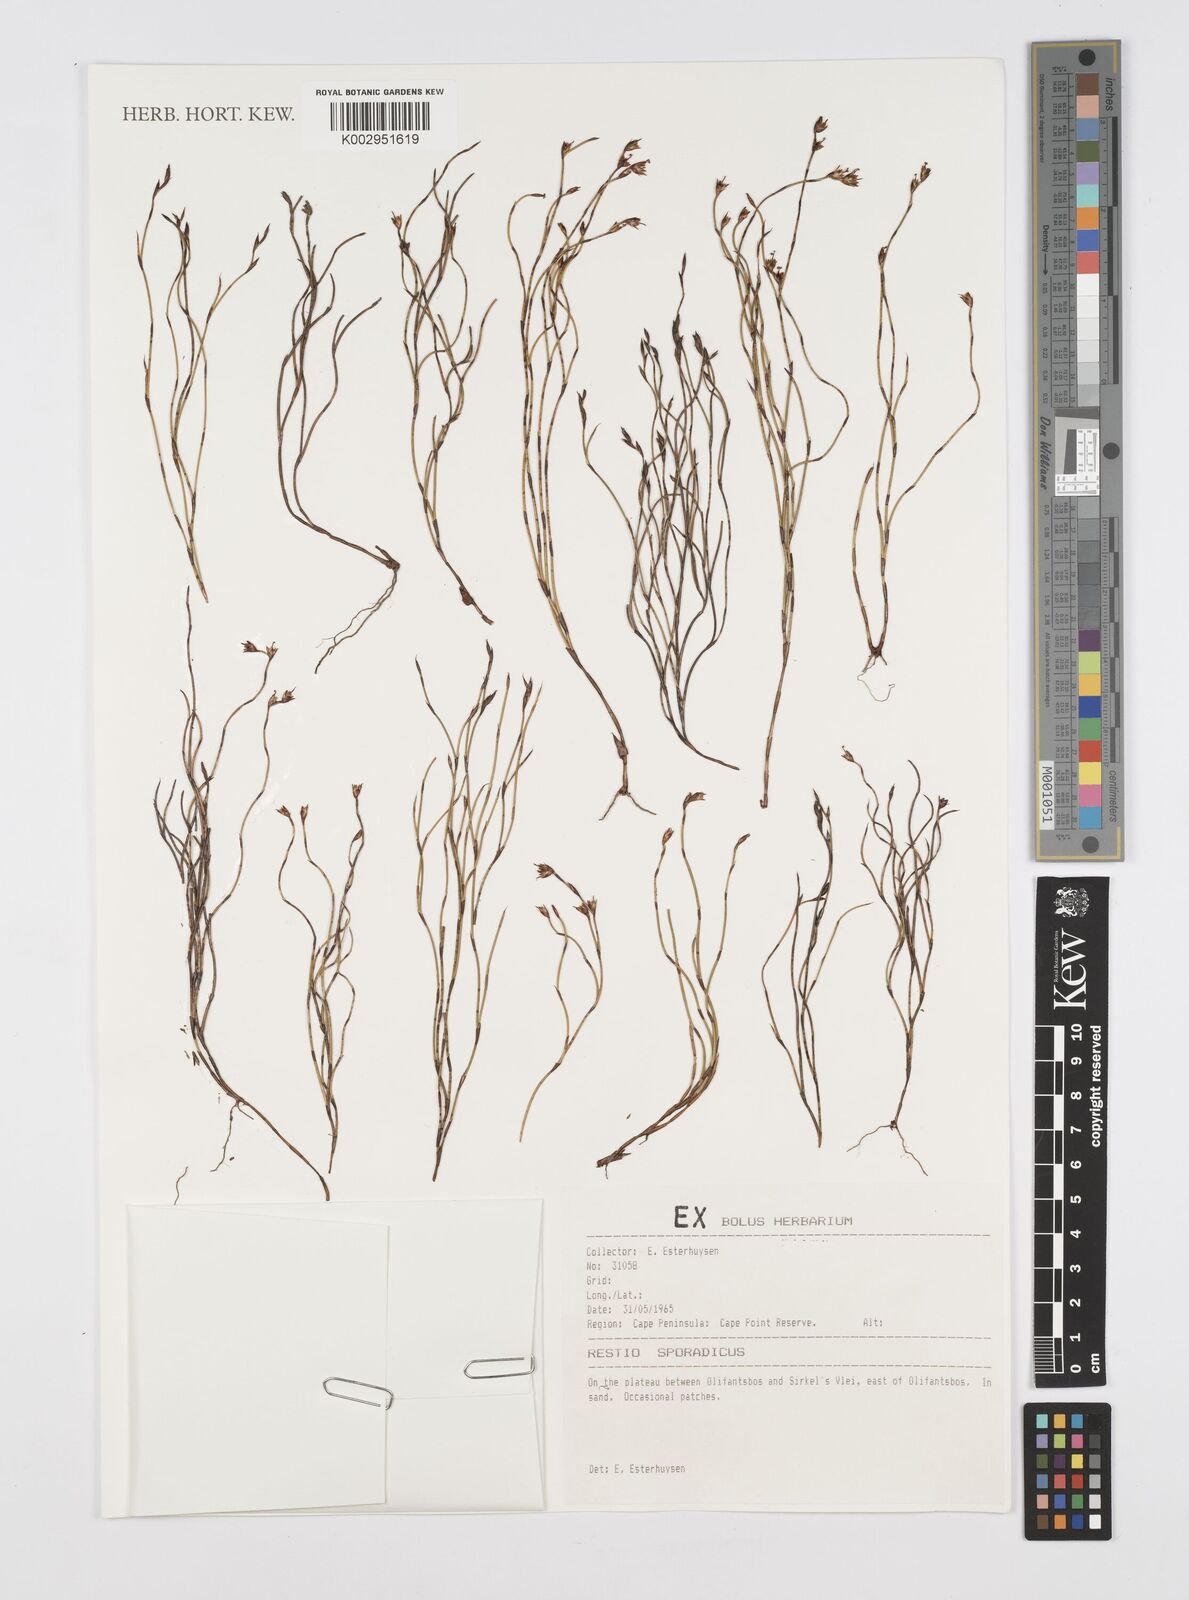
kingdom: Plantae
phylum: Tracheophyta
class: Liliopsida
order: Poales
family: Restionaceae
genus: Restio
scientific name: Restio sporadicus
